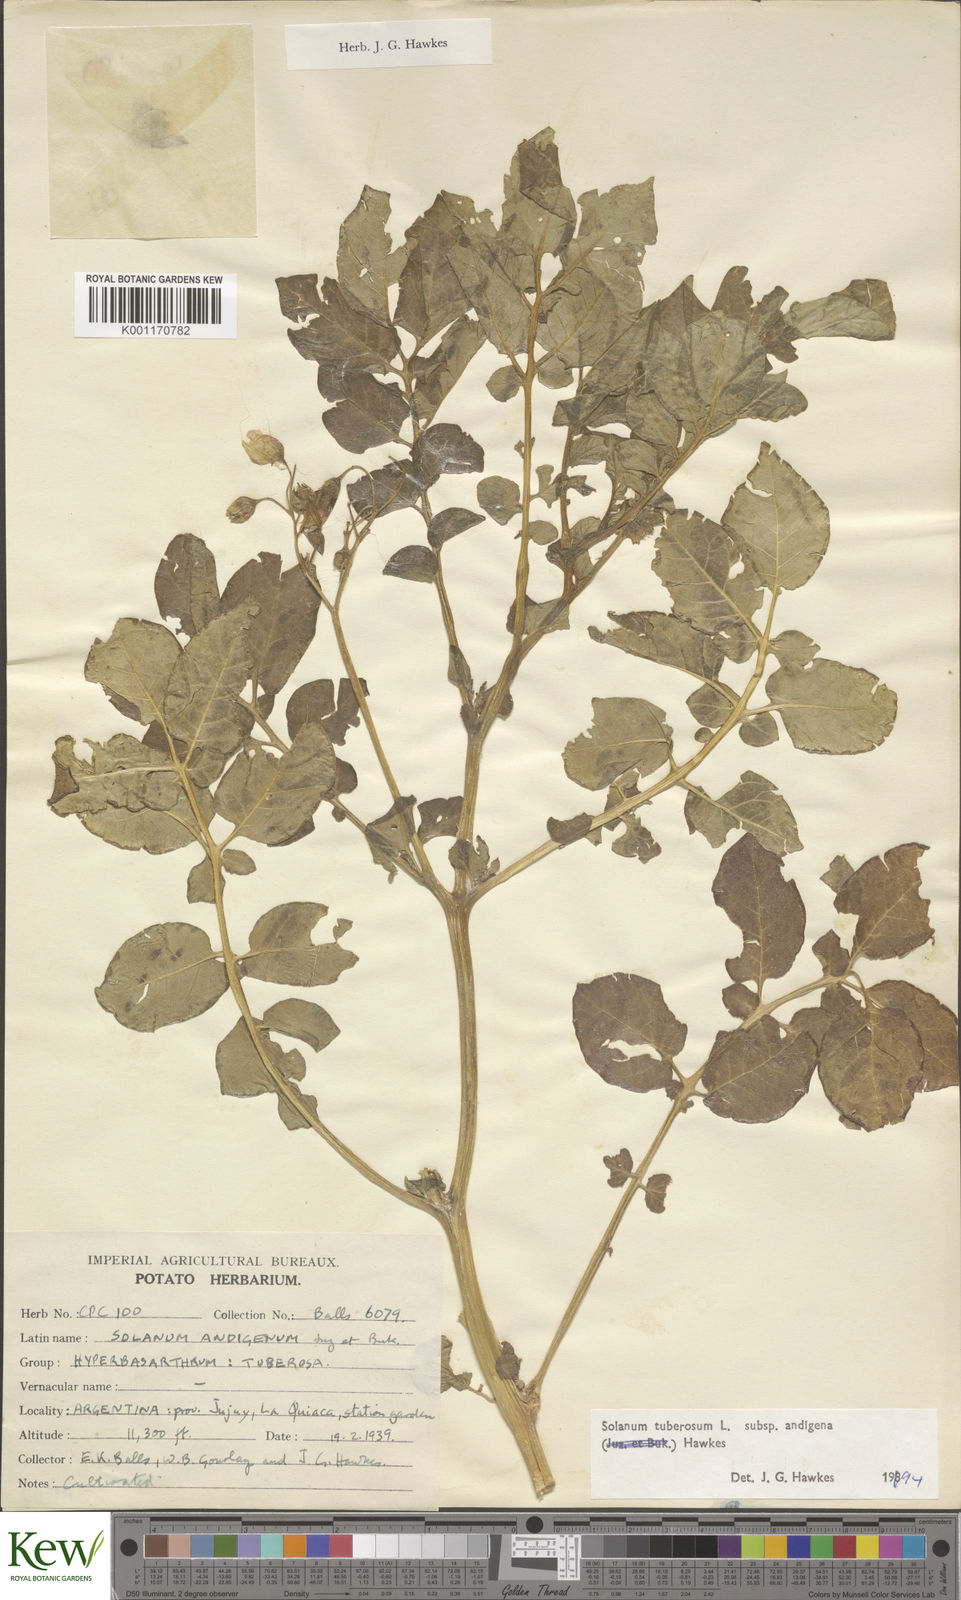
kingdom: Plantae
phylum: Tracheophyta
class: Magnoliopsida
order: Solanales
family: Solanaceae
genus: Solanum
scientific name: Solanum tuberosum
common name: Potato
